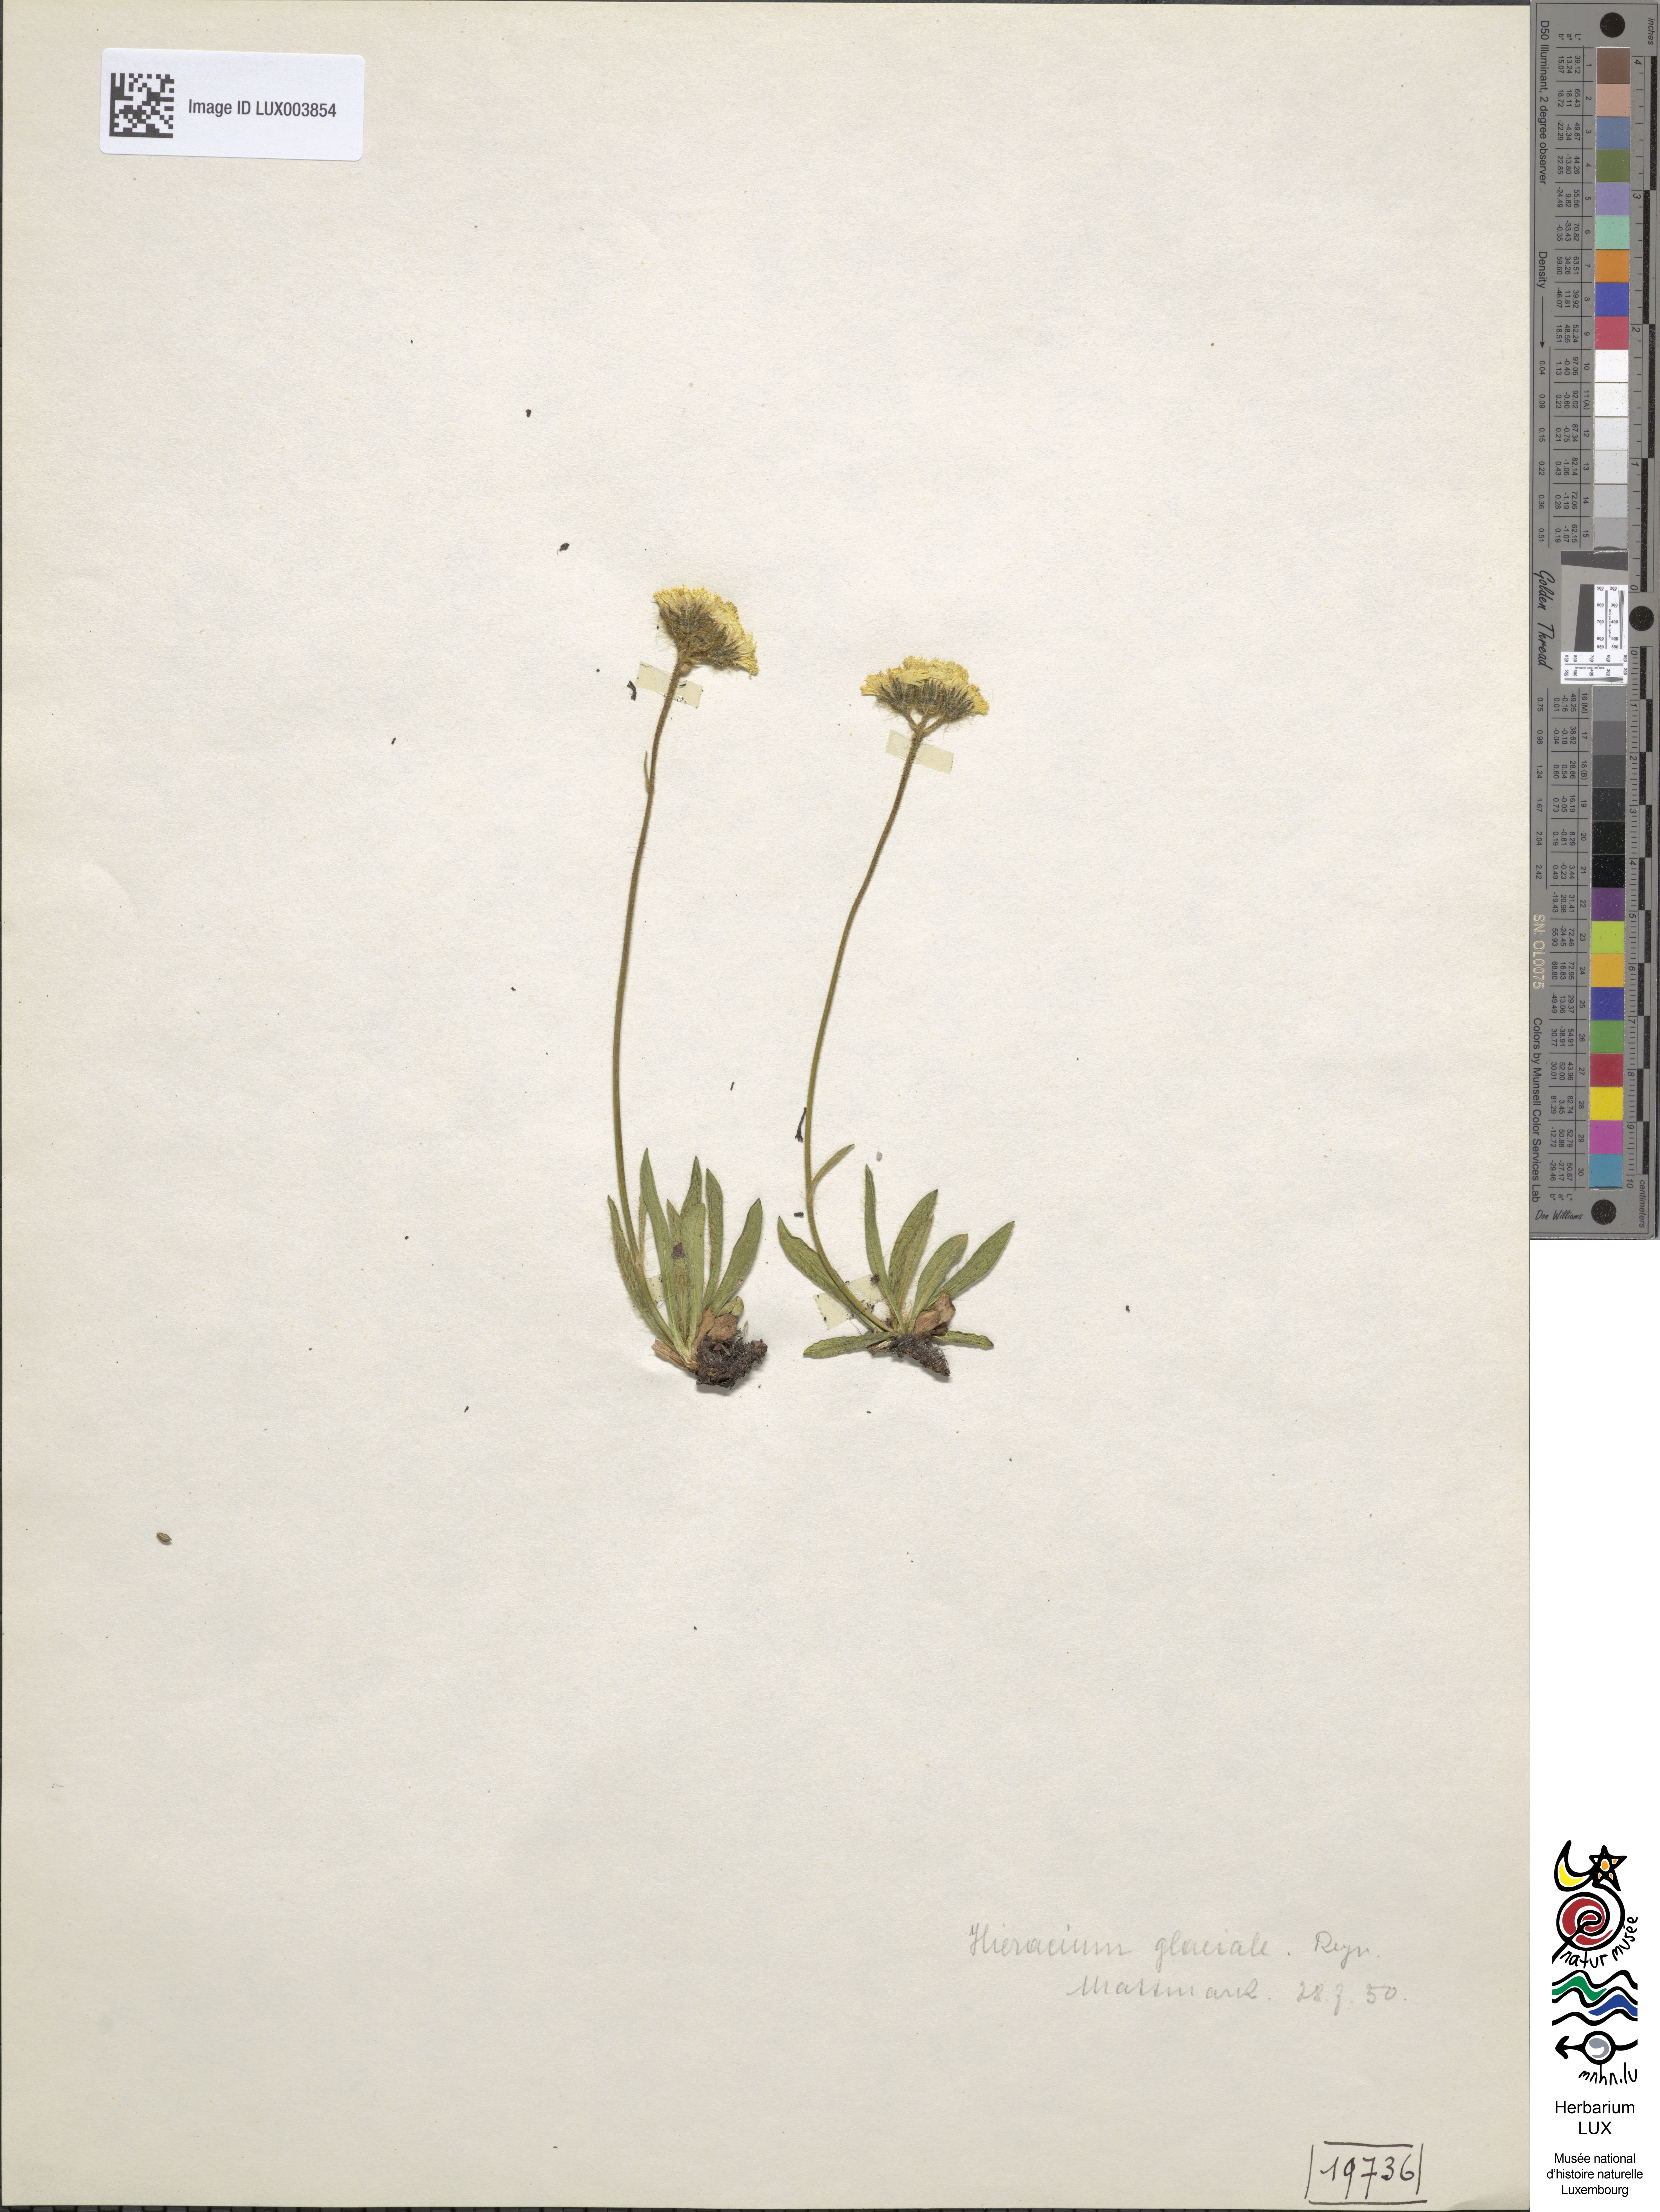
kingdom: Plantae
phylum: Tracheophyta
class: Magnoliopsida
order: Asterales
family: Asteraceae
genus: Pilosella
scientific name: Pilosella glacialis
